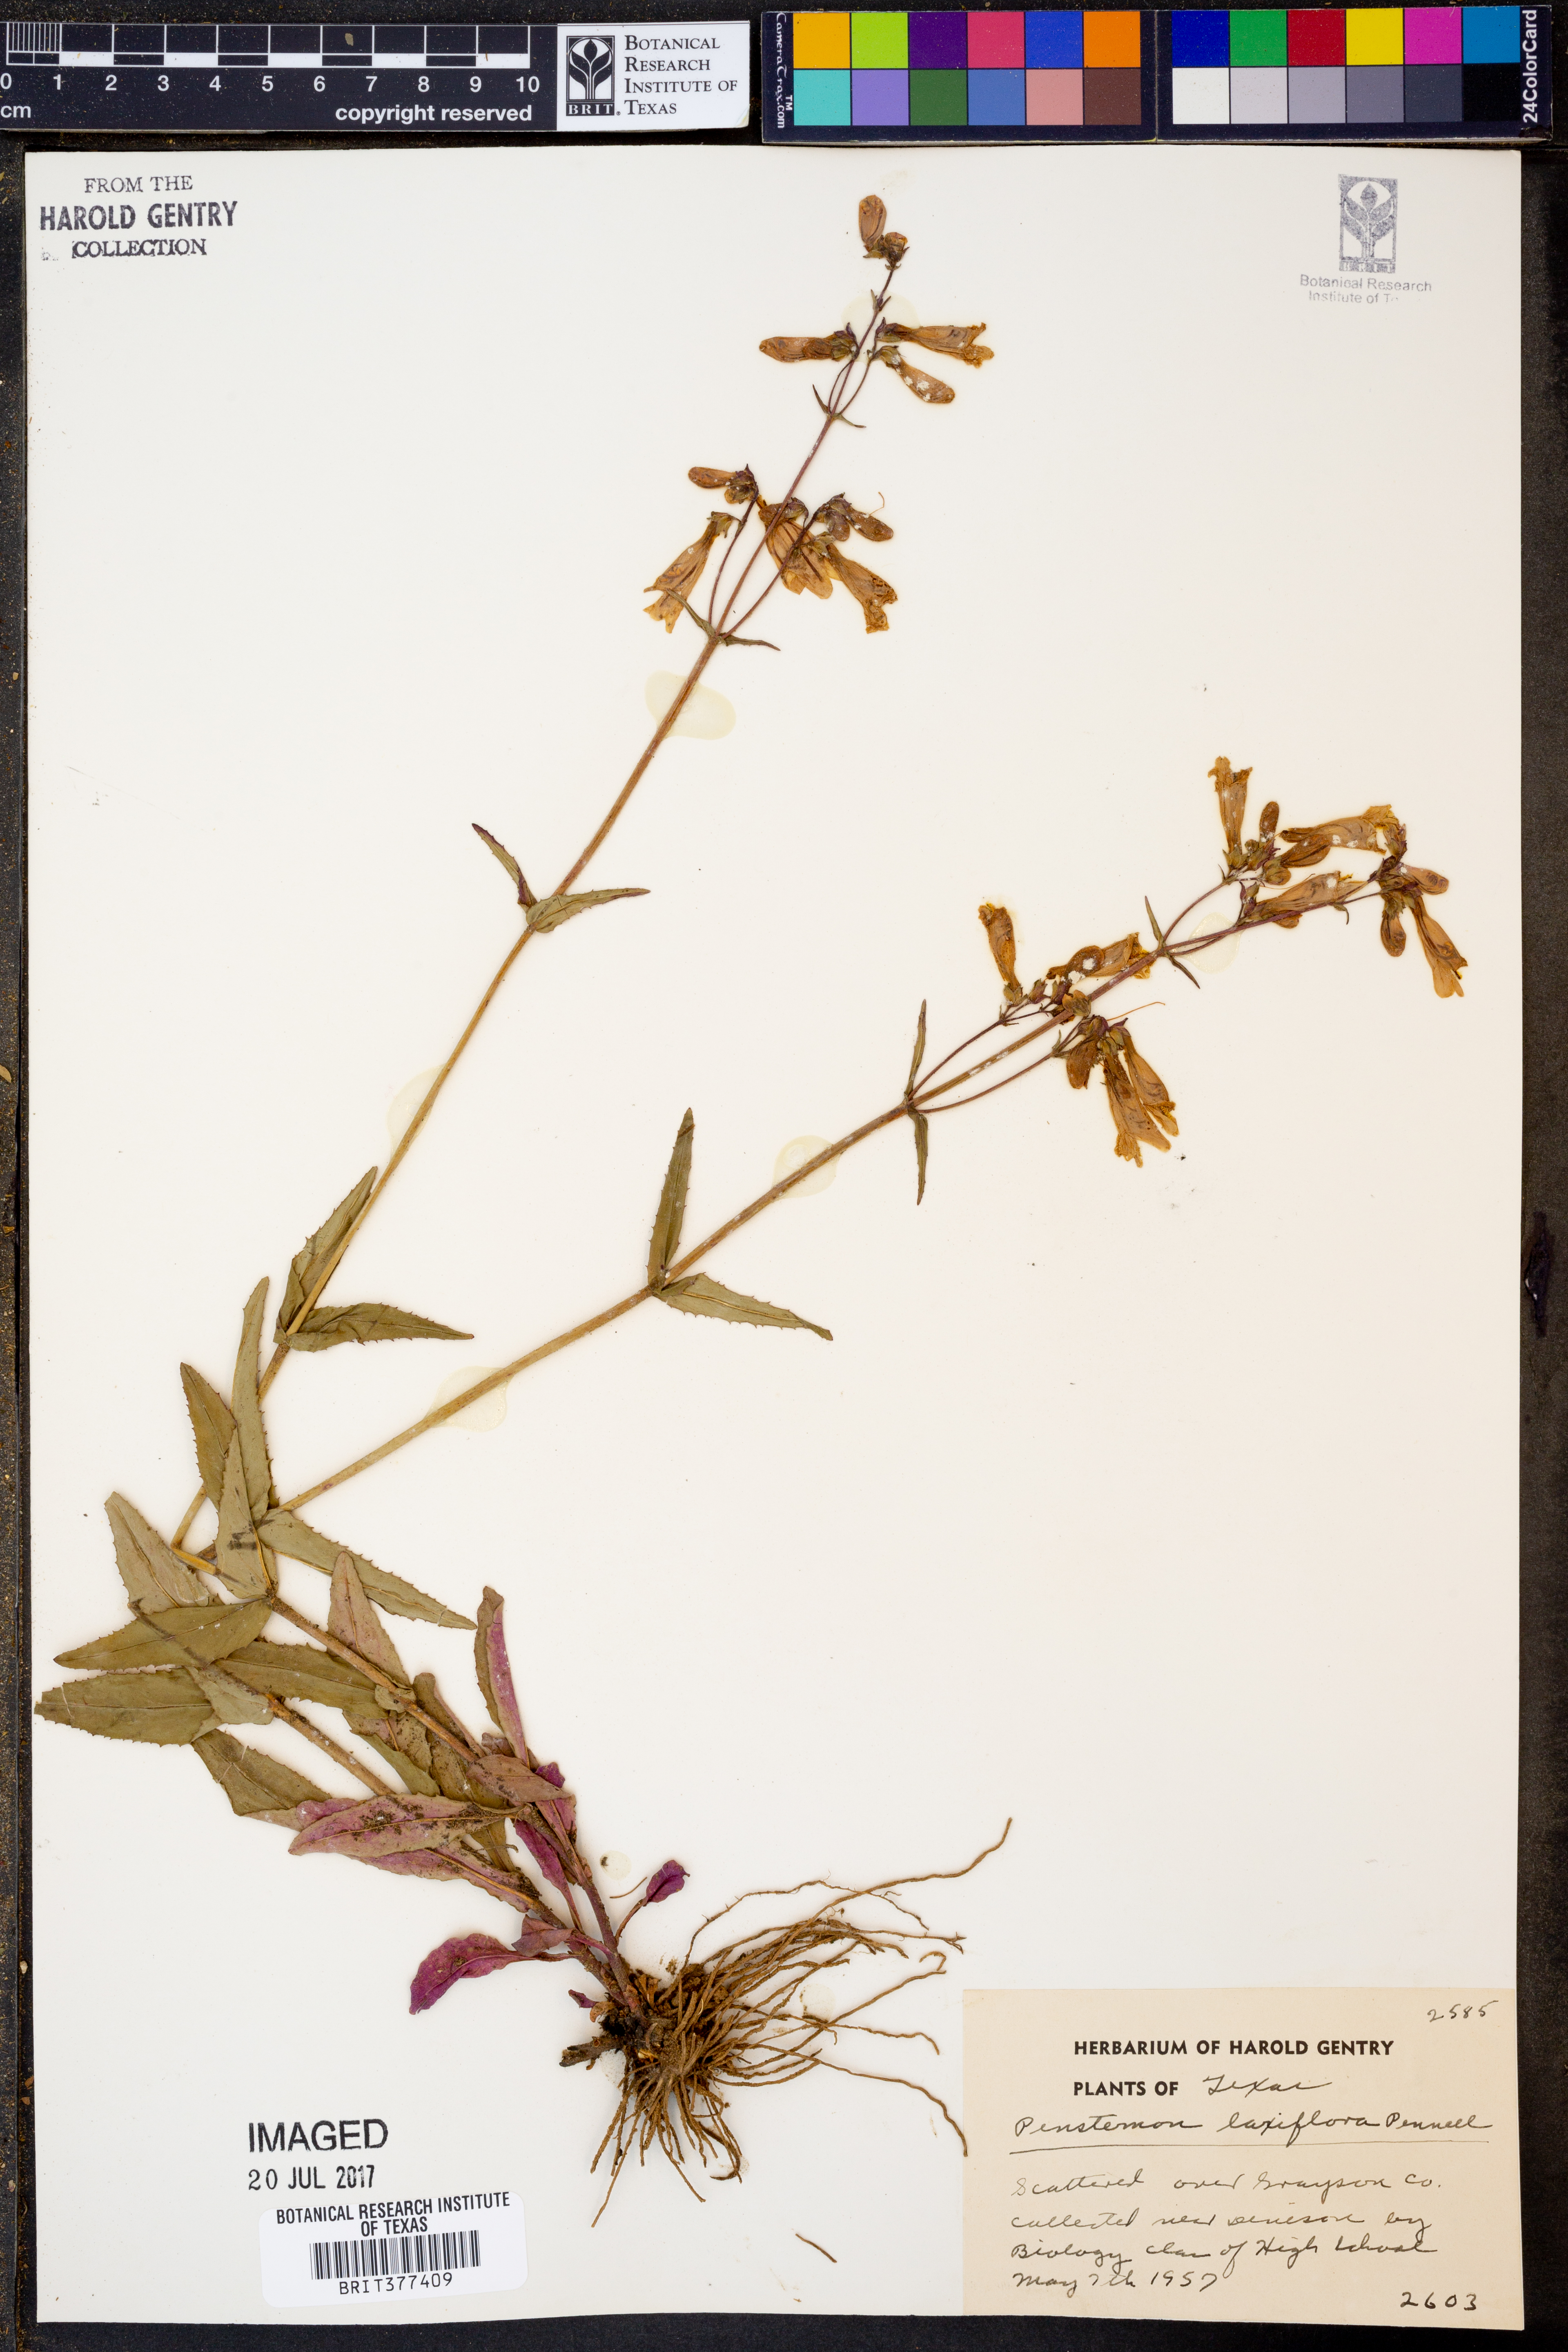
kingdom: Plantae
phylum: Tracheophyta
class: Magnoliopsida
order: Lamiales
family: Plantaginaceae
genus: Penstemon
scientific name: Penstemon laxiflorus
